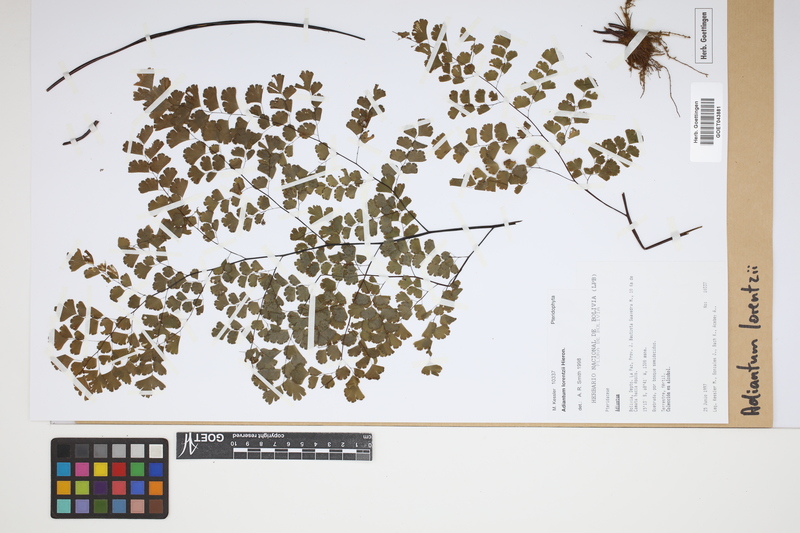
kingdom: Plantae
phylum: Tracheophyta
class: Polypodiopsida
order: Polypodiales
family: Pteridaceae
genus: Adiantum
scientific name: Adiantum lorentzii
